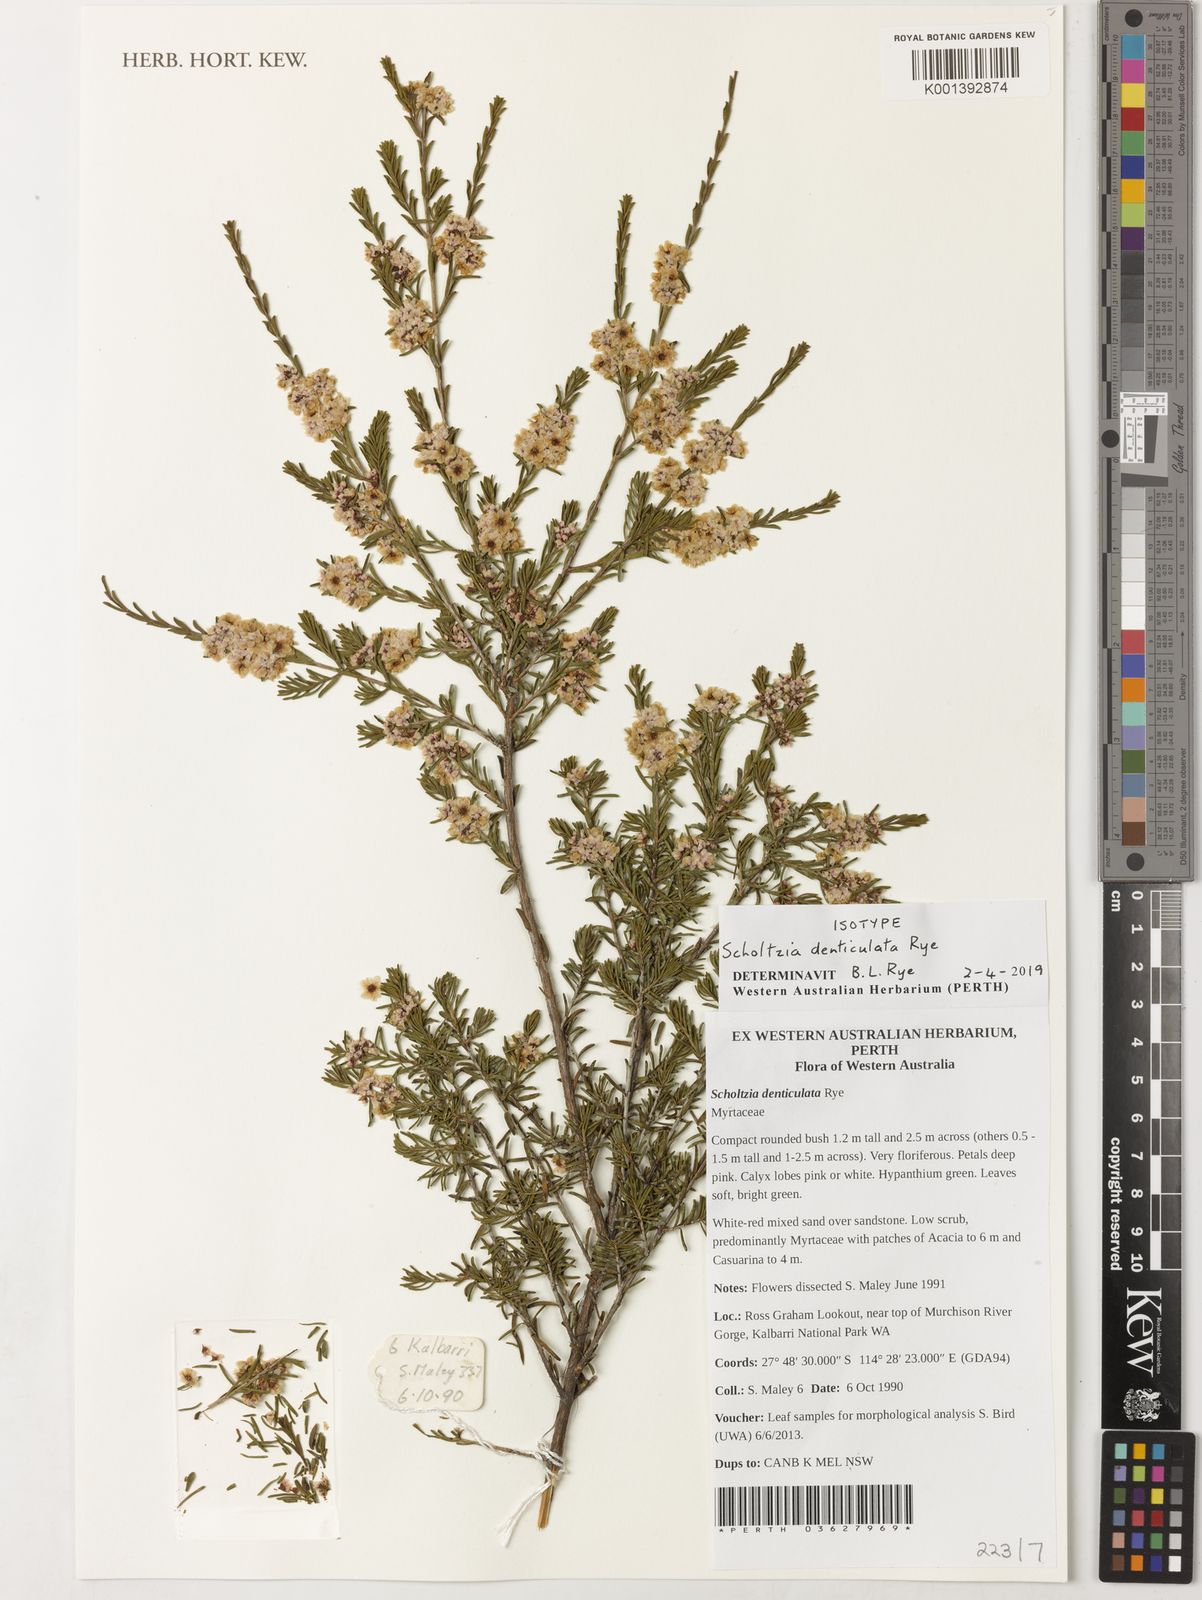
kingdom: Plantae
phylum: Tracheophyta
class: Magnoliopsida
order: Myrtales
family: Myrtaceae
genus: Scholtzia
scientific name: Scholtzia
